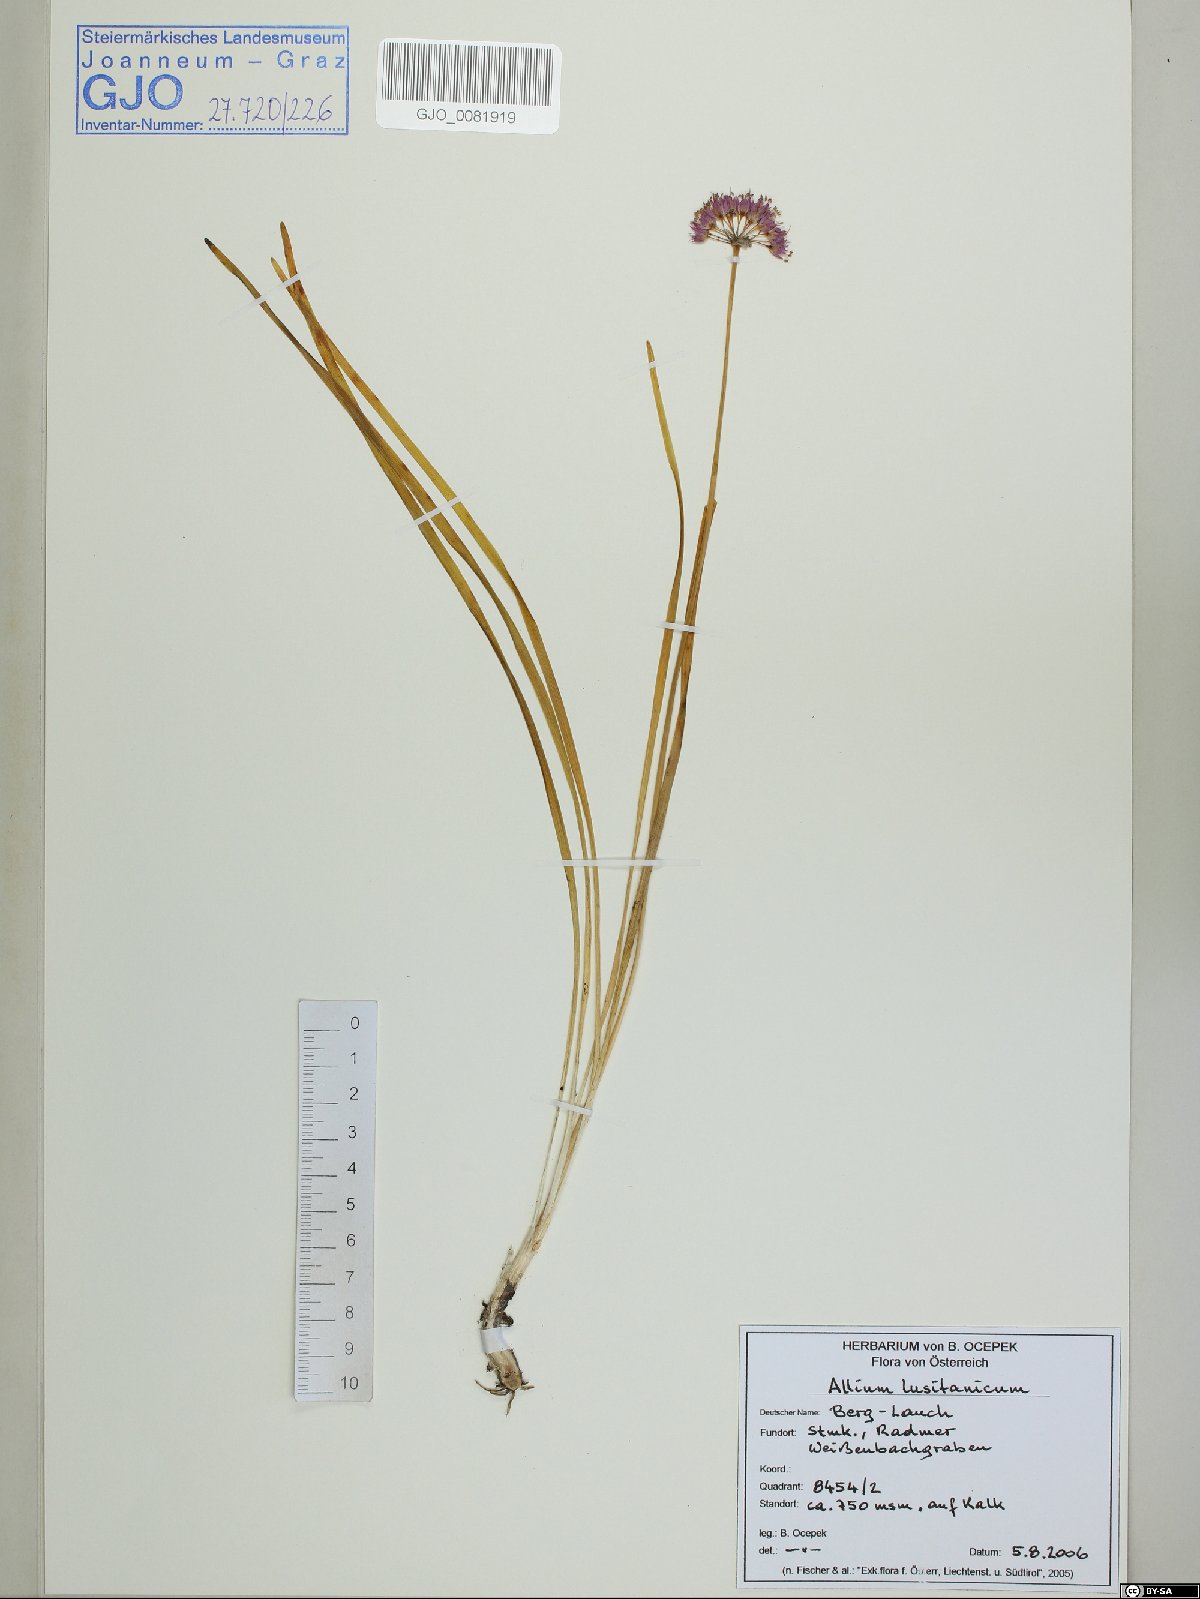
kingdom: Plantae
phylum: Tracheophyta
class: Liliopsida
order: Asparagales
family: Amaryllidaceae
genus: Allium
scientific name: Allium lusitanicum
